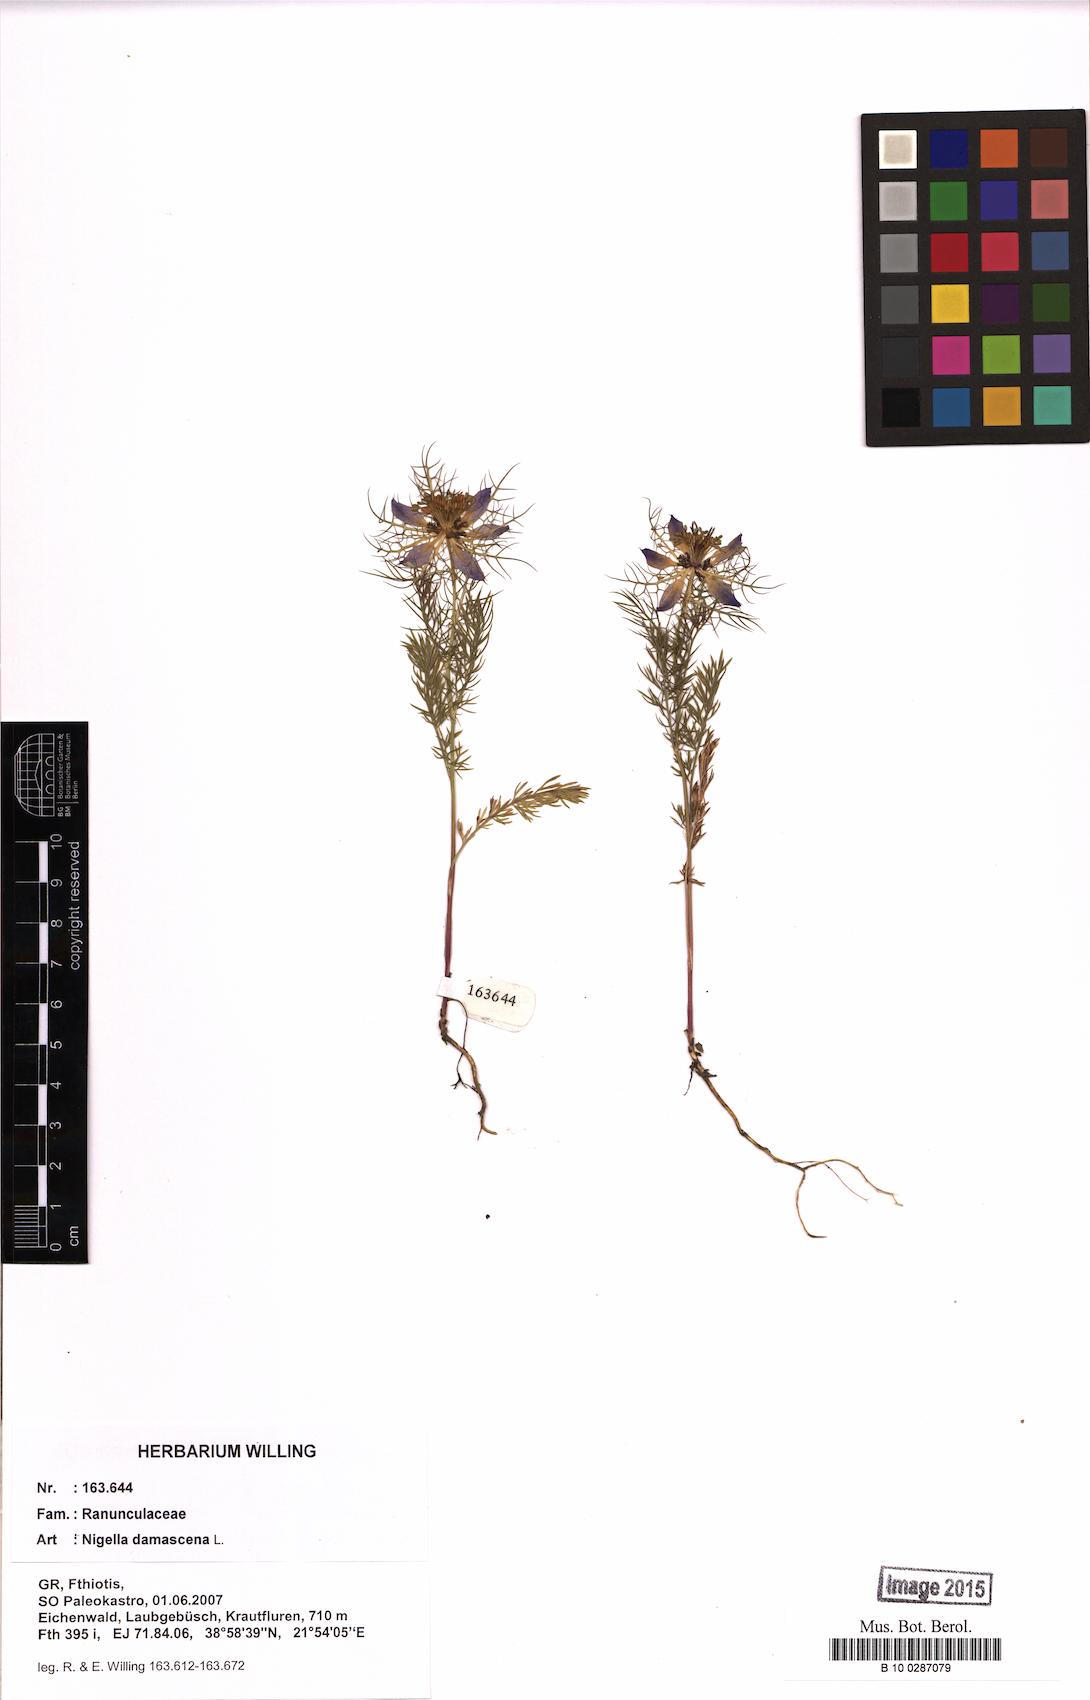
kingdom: Plantae
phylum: Tracheophyta
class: Magnoliopsida
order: Ranunculales
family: Ranunculaceae
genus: Nigella
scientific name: Nigella damascena
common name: Love-in-a-mist
